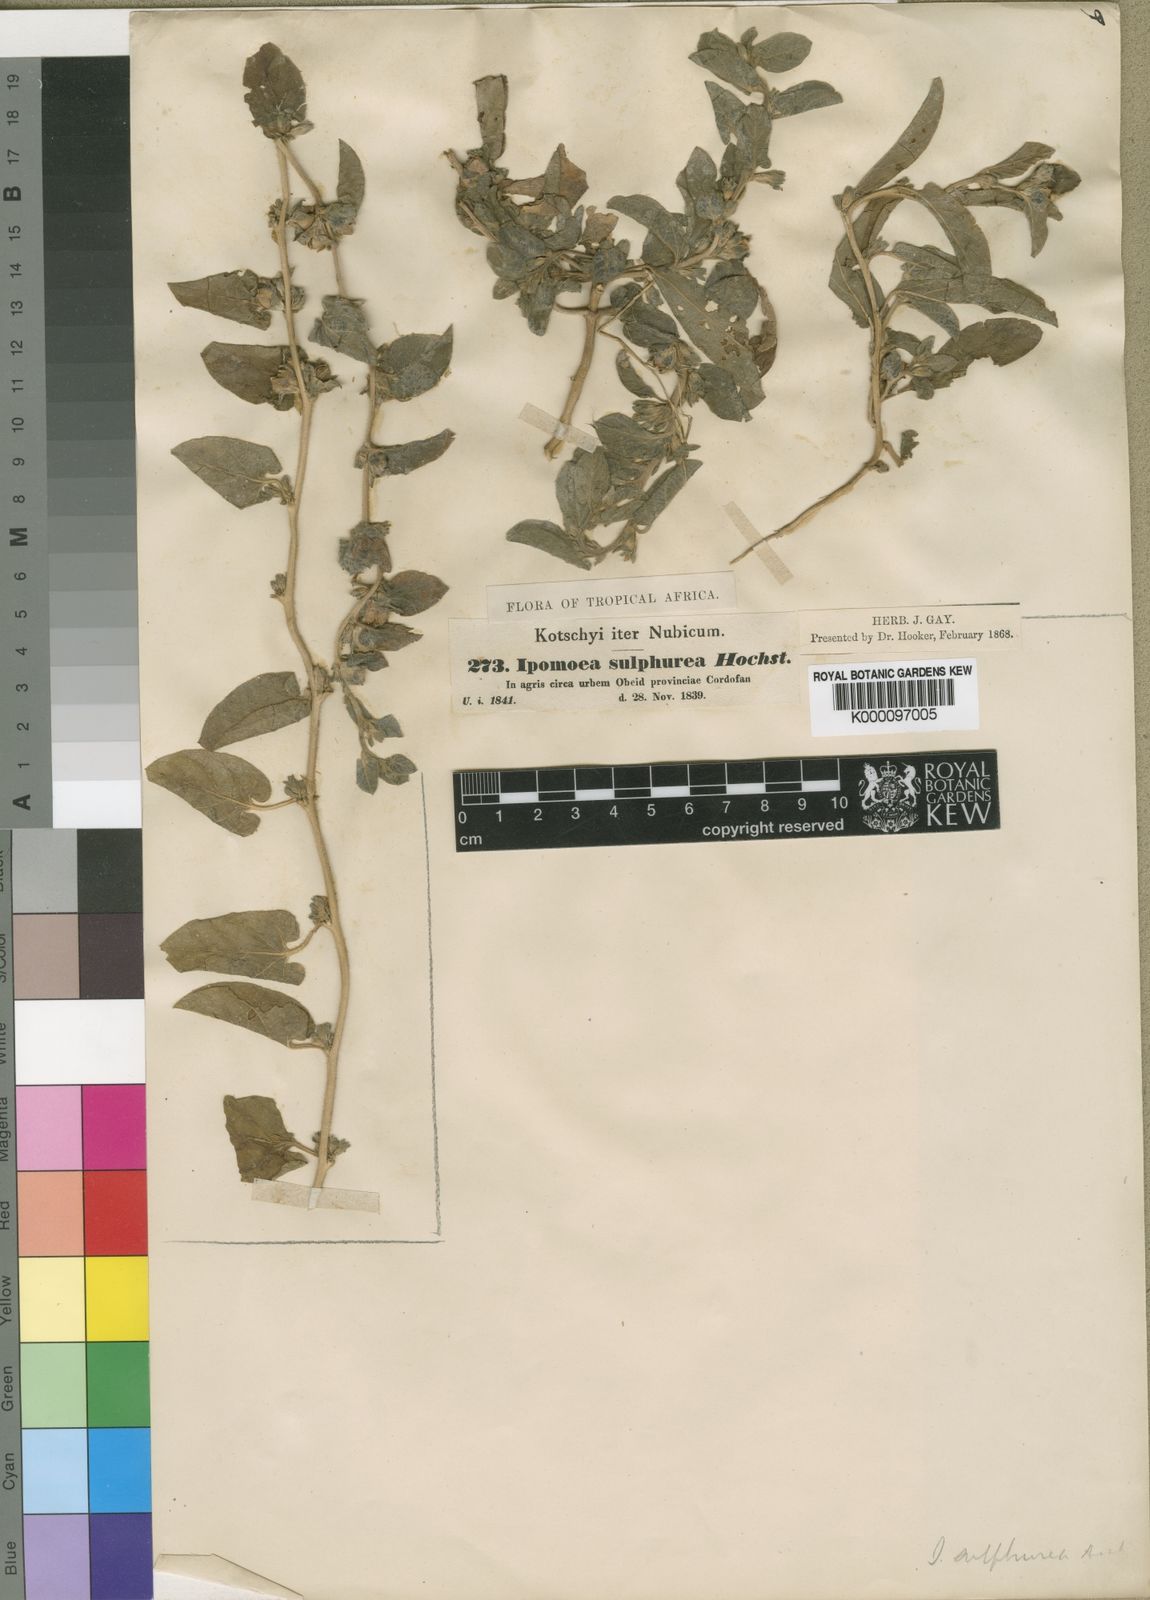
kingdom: Plantae
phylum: Tracheophyta
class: Magnoliopsida
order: Solanales
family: Convolvulaceae
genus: Ipomoea
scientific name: Ipomoea vagans
